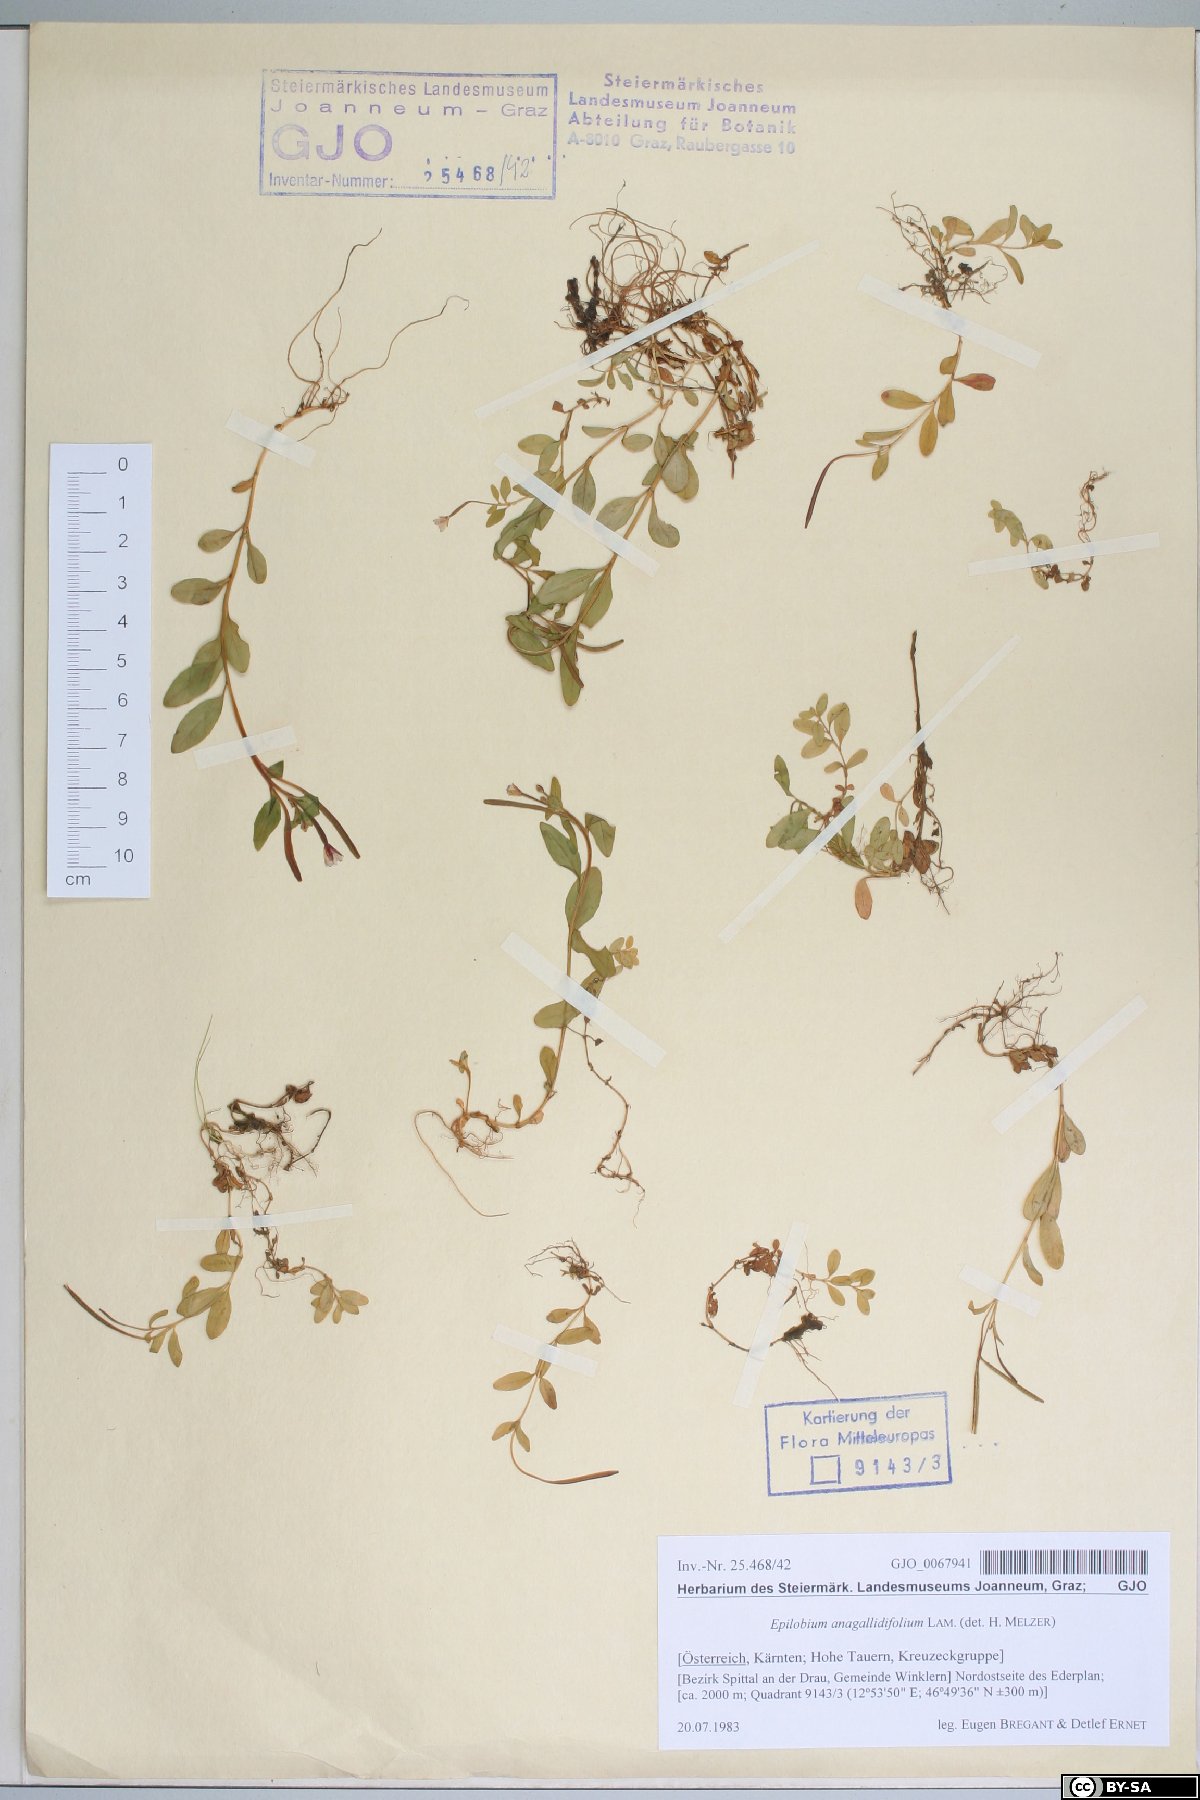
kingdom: Plantae
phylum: Tracheophyta
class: Magnoliopsida
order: Myrtales
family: Onagraceae
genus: Epilobium
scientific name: Epilobium anagallidifolium
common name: Alpine willowherb
